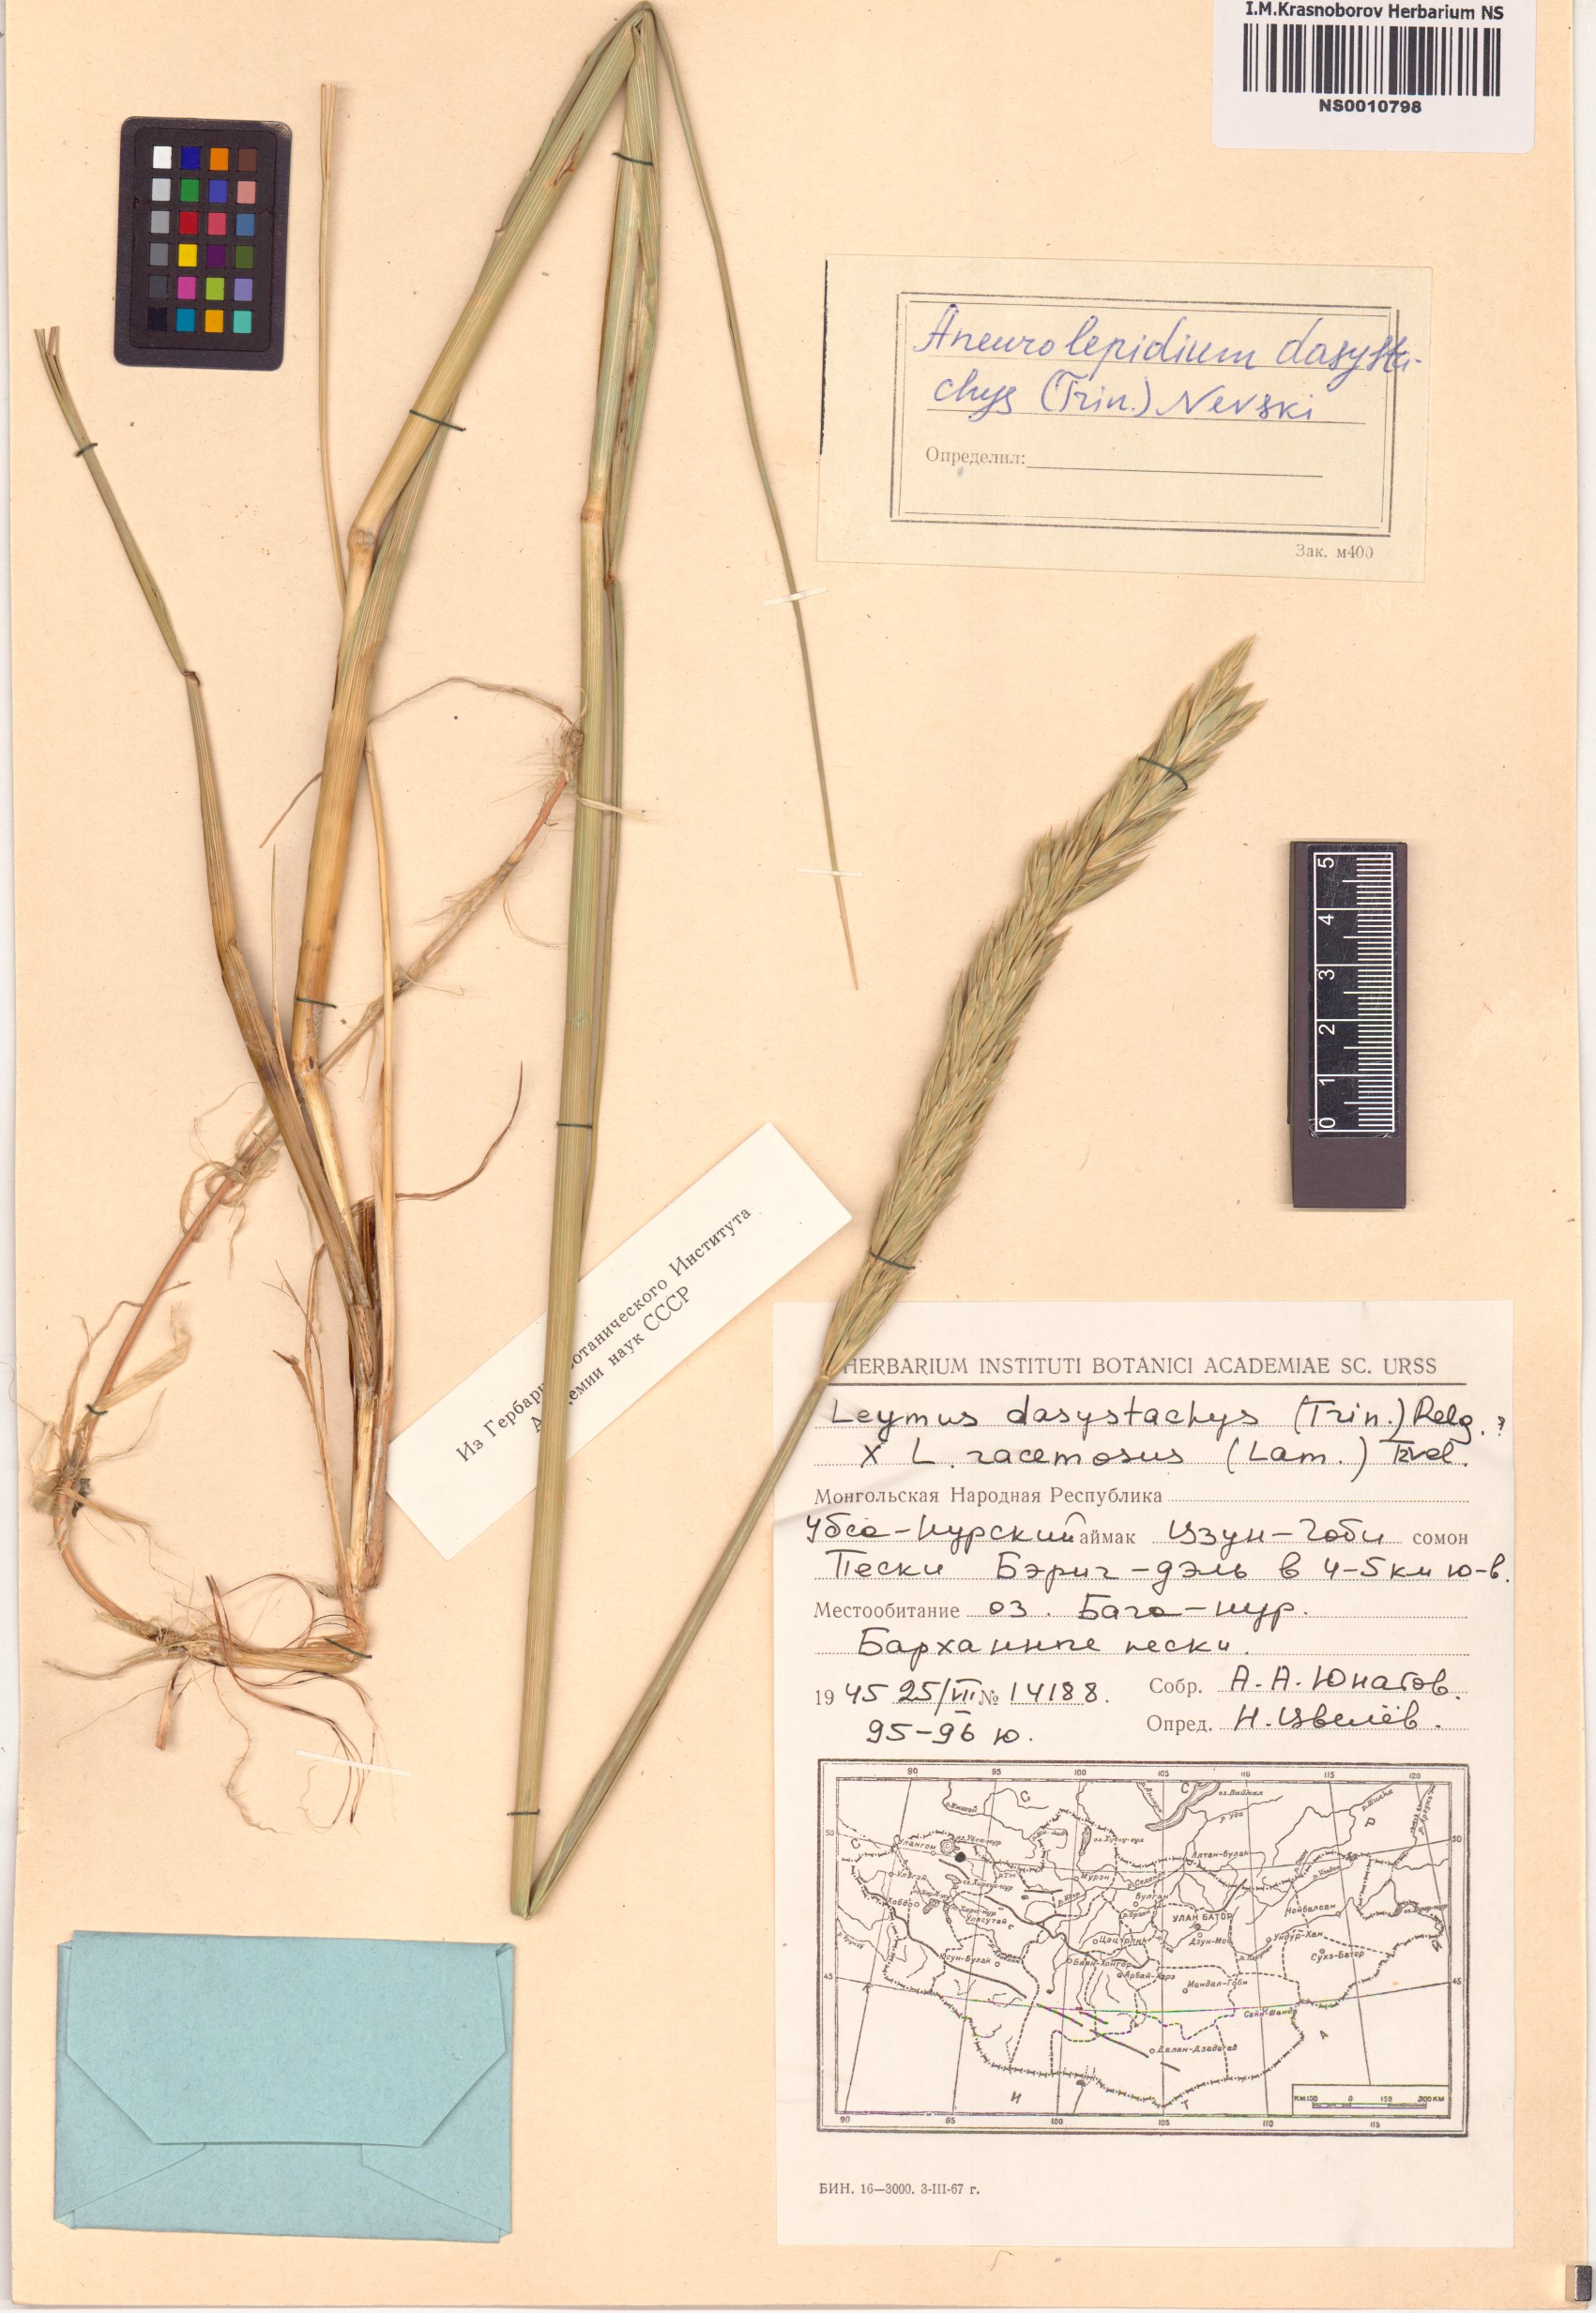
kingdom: Plantae
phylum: Tracheophyta
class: Liliopsida
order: Poales
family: Poaceae
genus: Leymus
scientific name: Leymus secalinus
